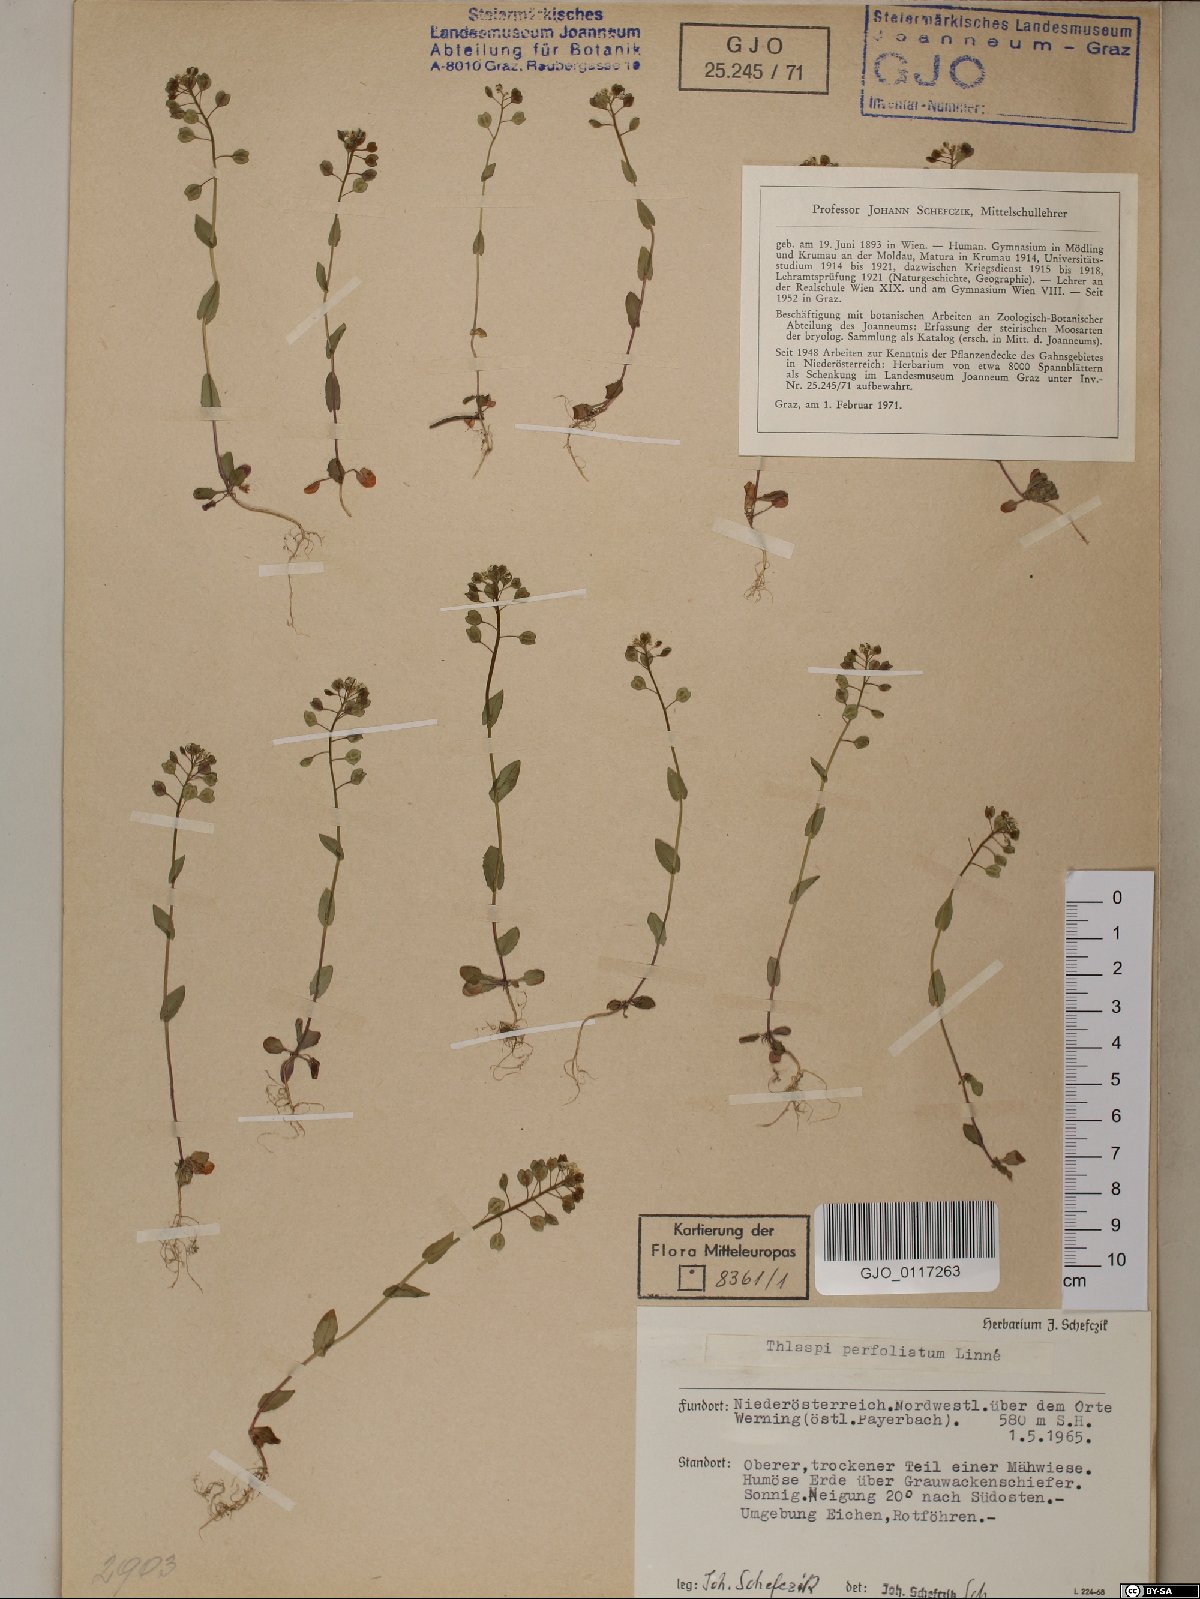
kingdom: Plantae
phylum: Tracheophyta
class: Magnoliopsida
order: Brassicales
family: Brassicaceae
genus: Noccaea
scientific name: Noccaea perfoliata
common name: Perfoliate pennycress
